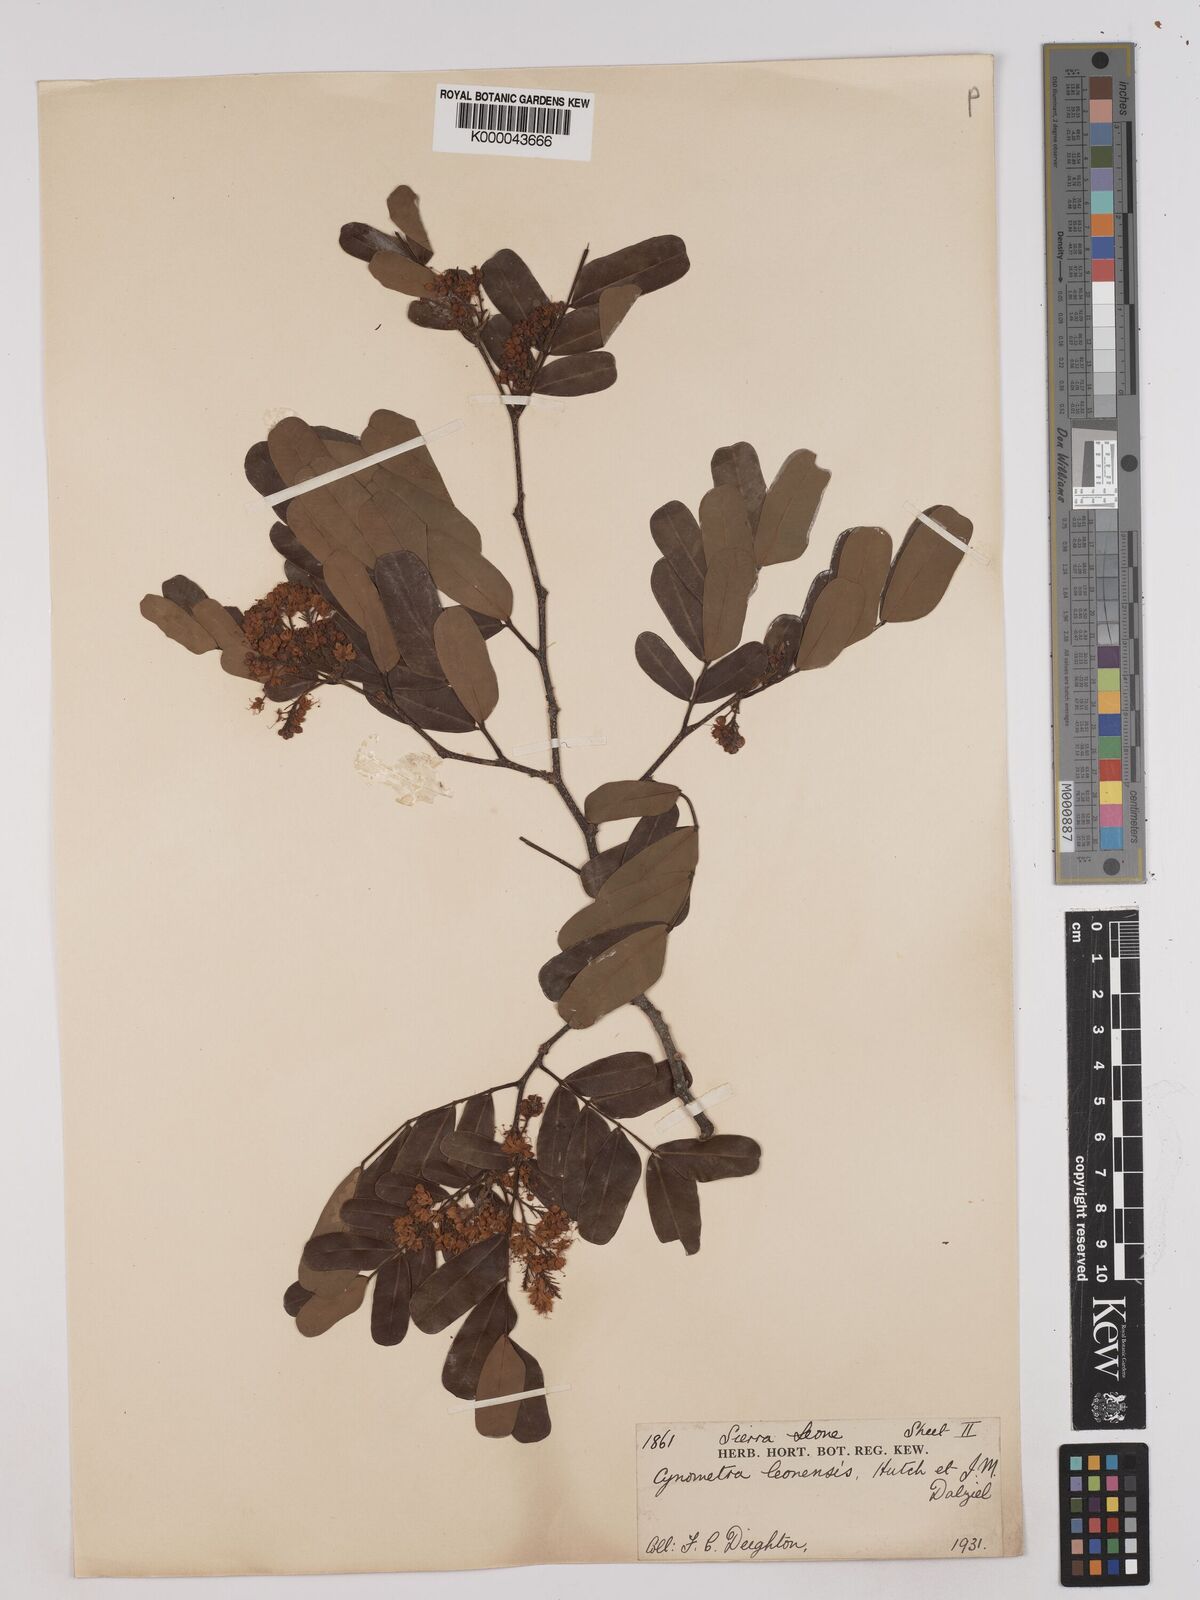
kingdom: Plantae
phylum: Tracheophyta
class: Magnoliopsida
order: Fabales
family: Fabaceae
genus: Cynometra
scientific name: Cynometra leonensis
